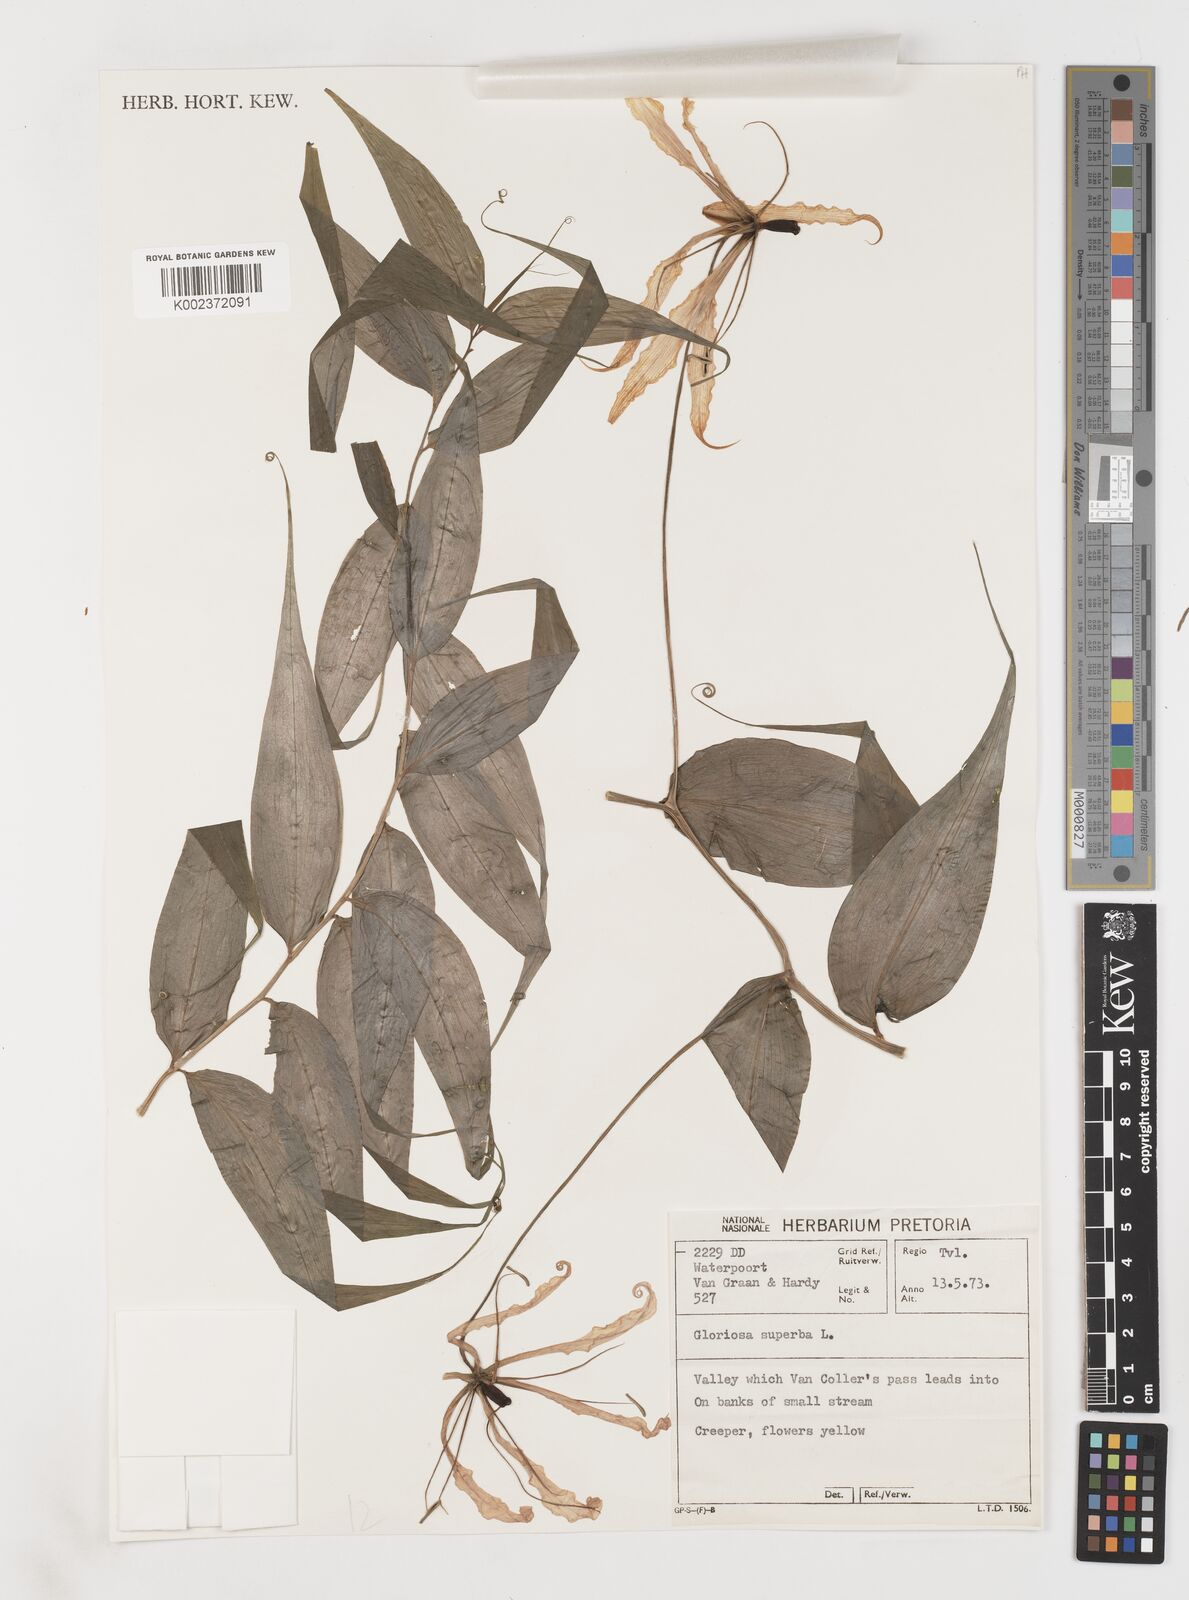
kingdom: Plantae
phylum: Tracheophyta
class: Liliopsida
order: Liliales
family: Colchicaceae
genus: Gloriosa
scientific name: Gloriosa superba
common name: Flame lily
